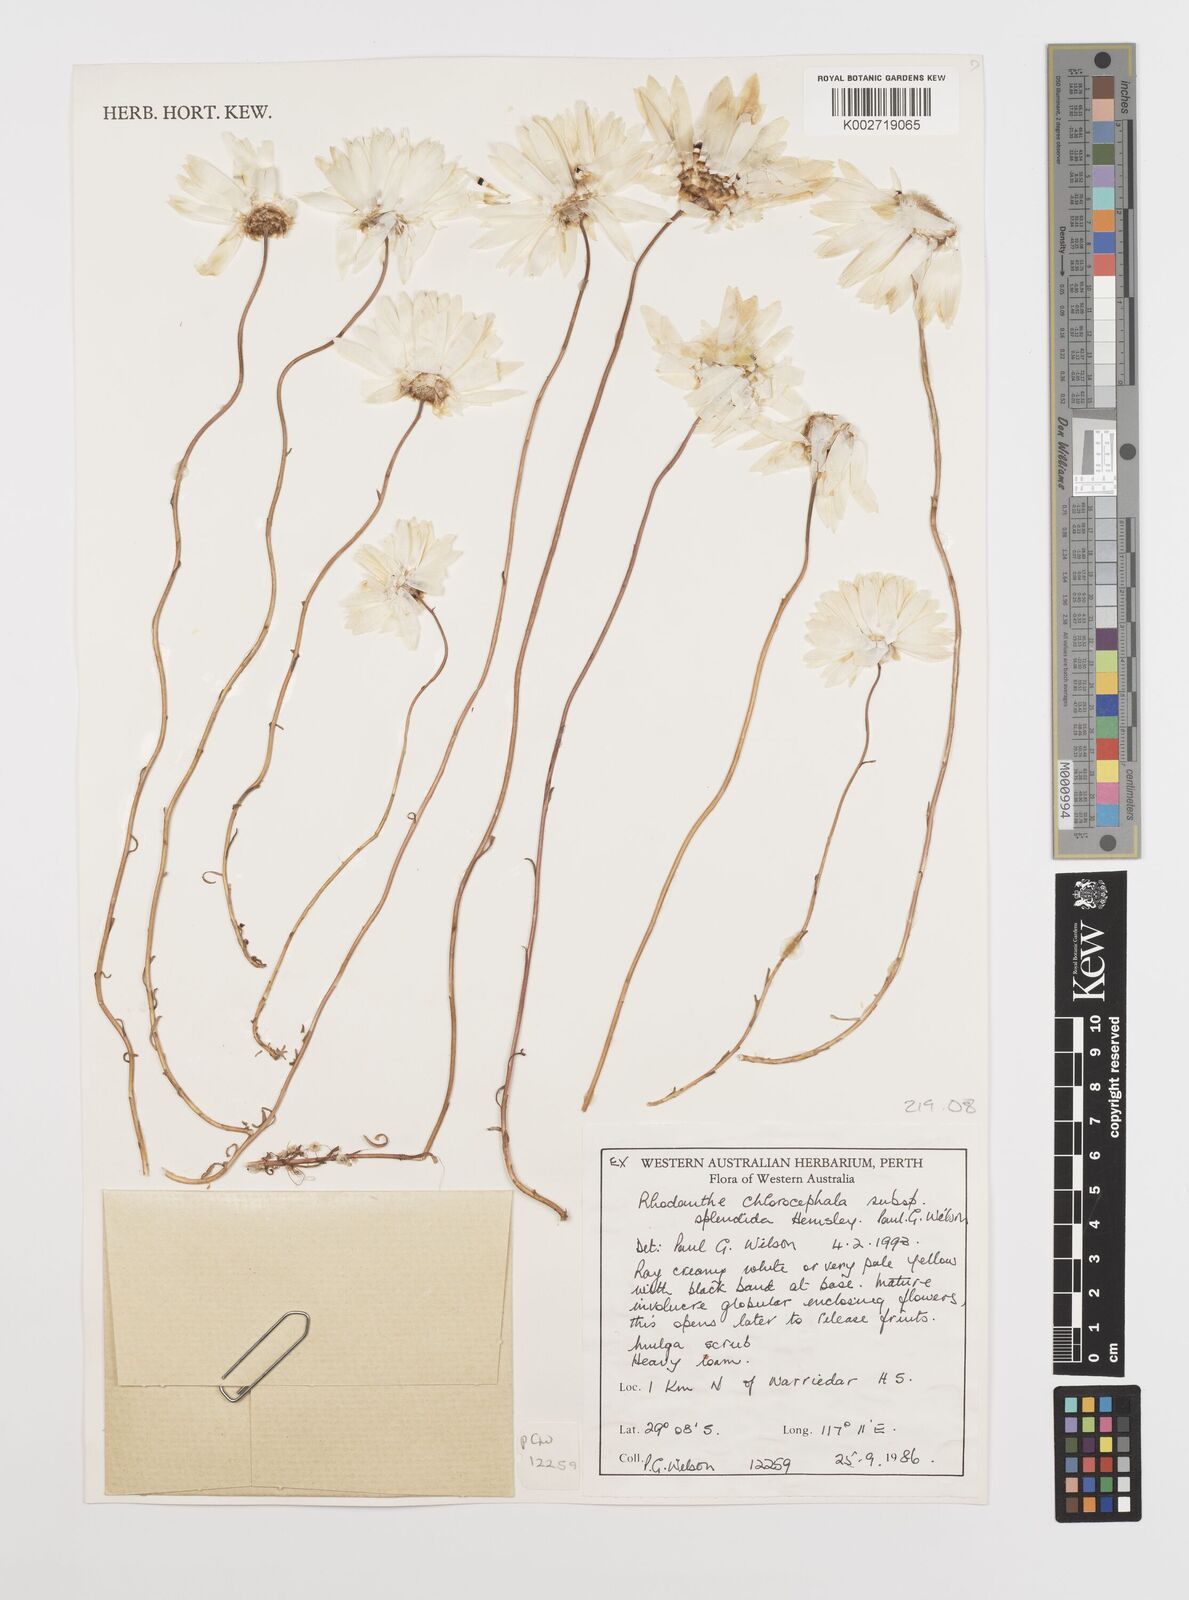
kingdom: Plantae
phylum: Tracheophyta
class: Magnoliopsida
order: Asterales
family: Asteraceae
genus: Rhodanthe
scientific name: Rhodanthe chlorocephala
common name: Rosy sunray
